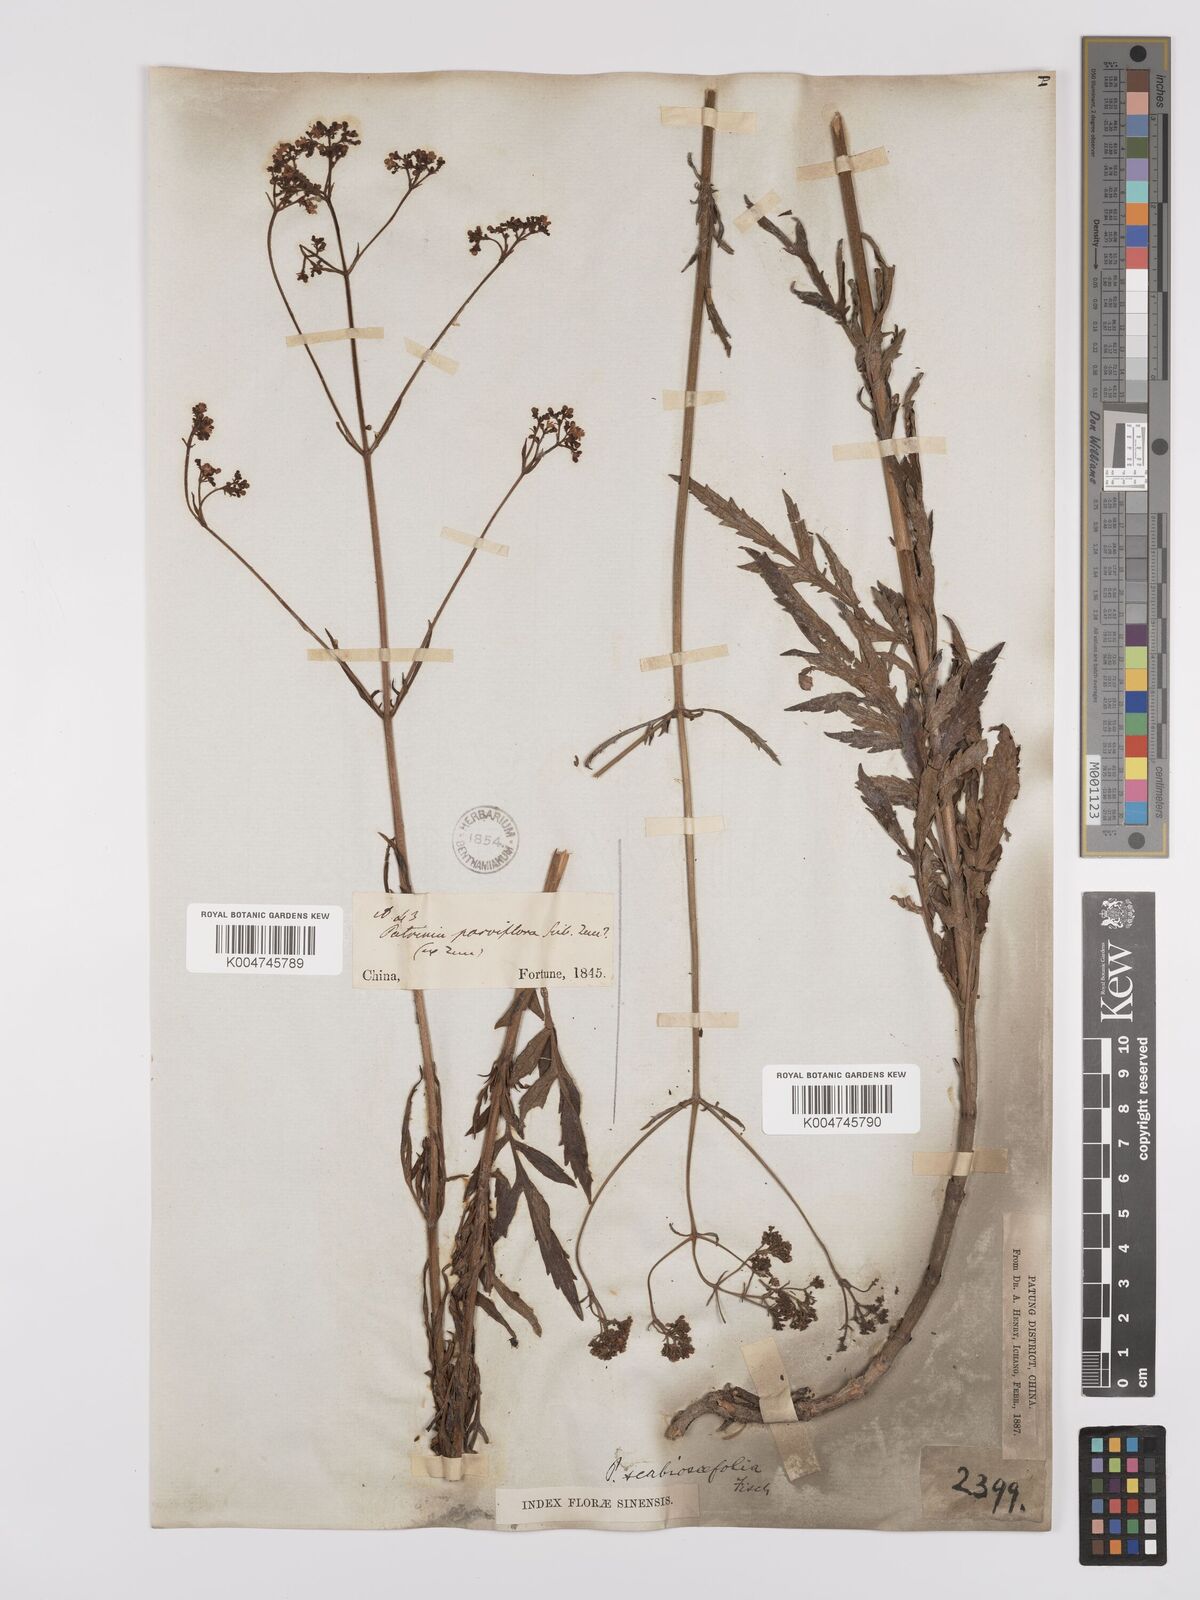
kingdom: Plantae
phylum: Tracheophyta
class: Magnoliopsida
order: Dipsacales
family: Caprifoliaceae
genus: Patrinia
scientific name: Patrinia scabiosifolia
